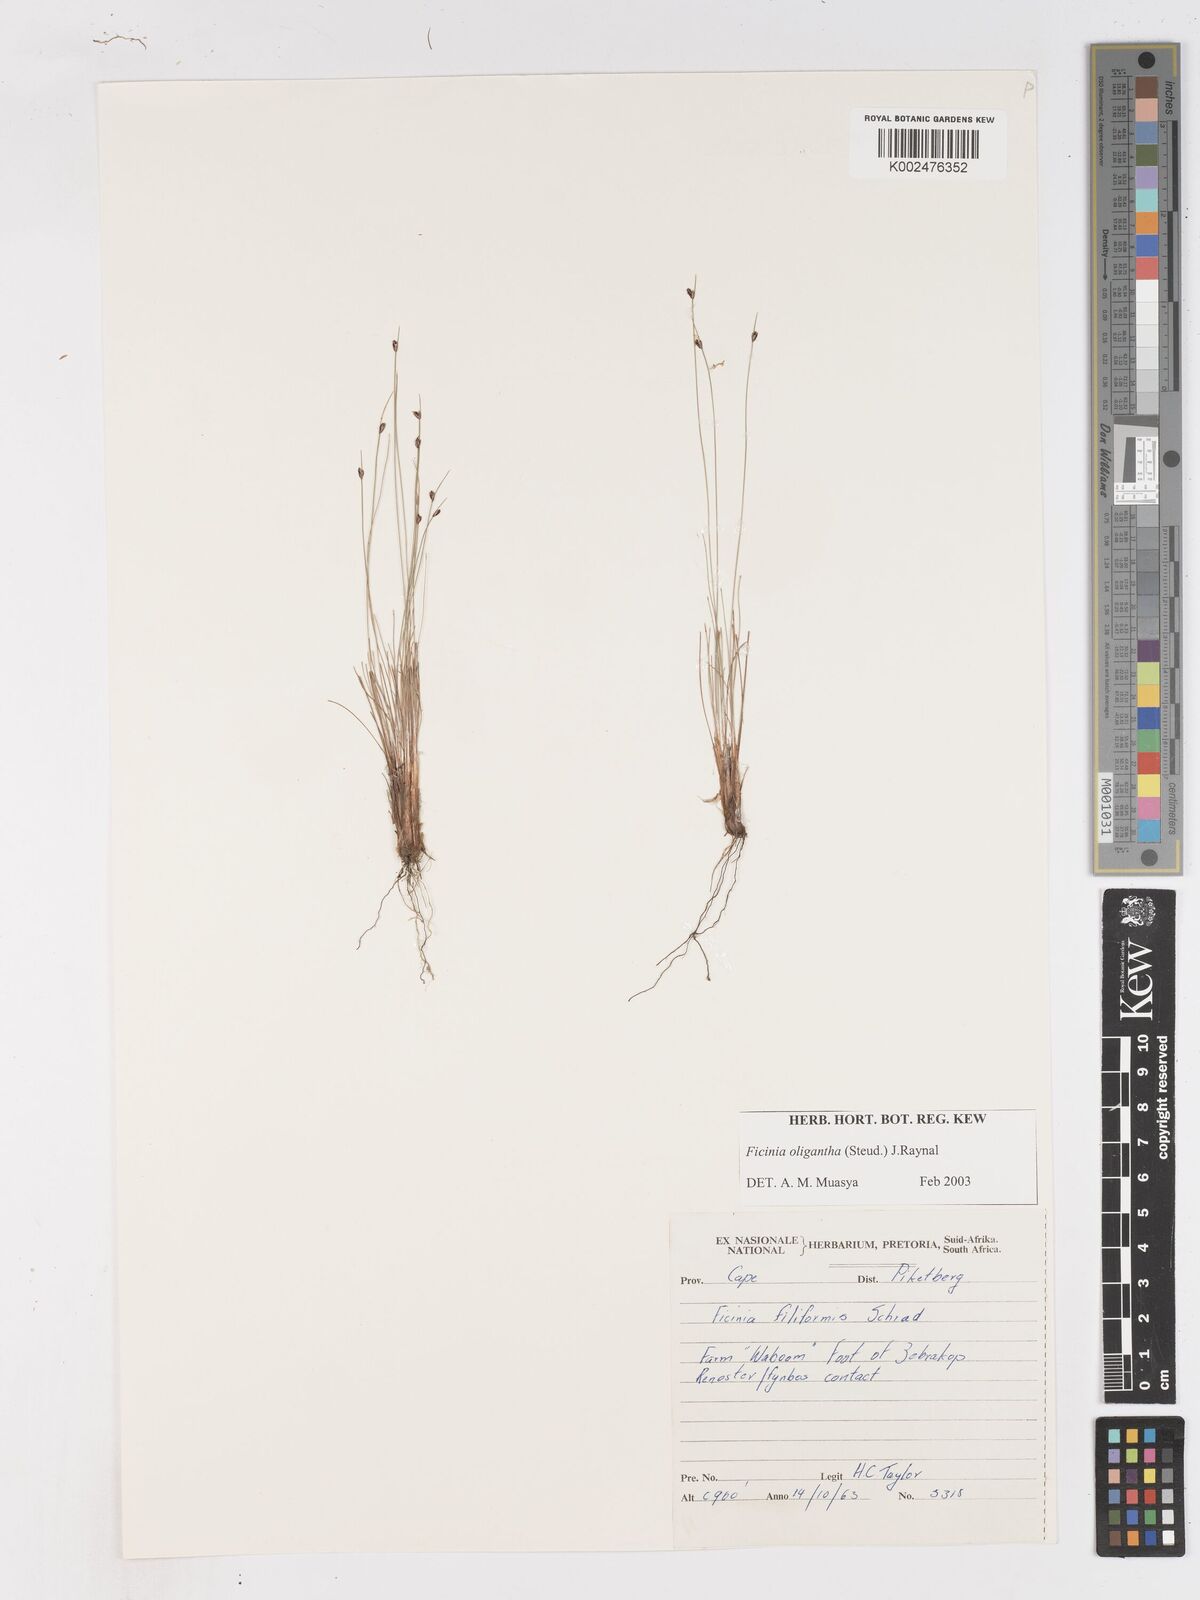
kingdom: Plantae
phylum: Tracheophyta
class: Liliopsida
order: Poales
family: Cyperaceae
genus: Ficinia
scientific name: Ficinia oligantha
